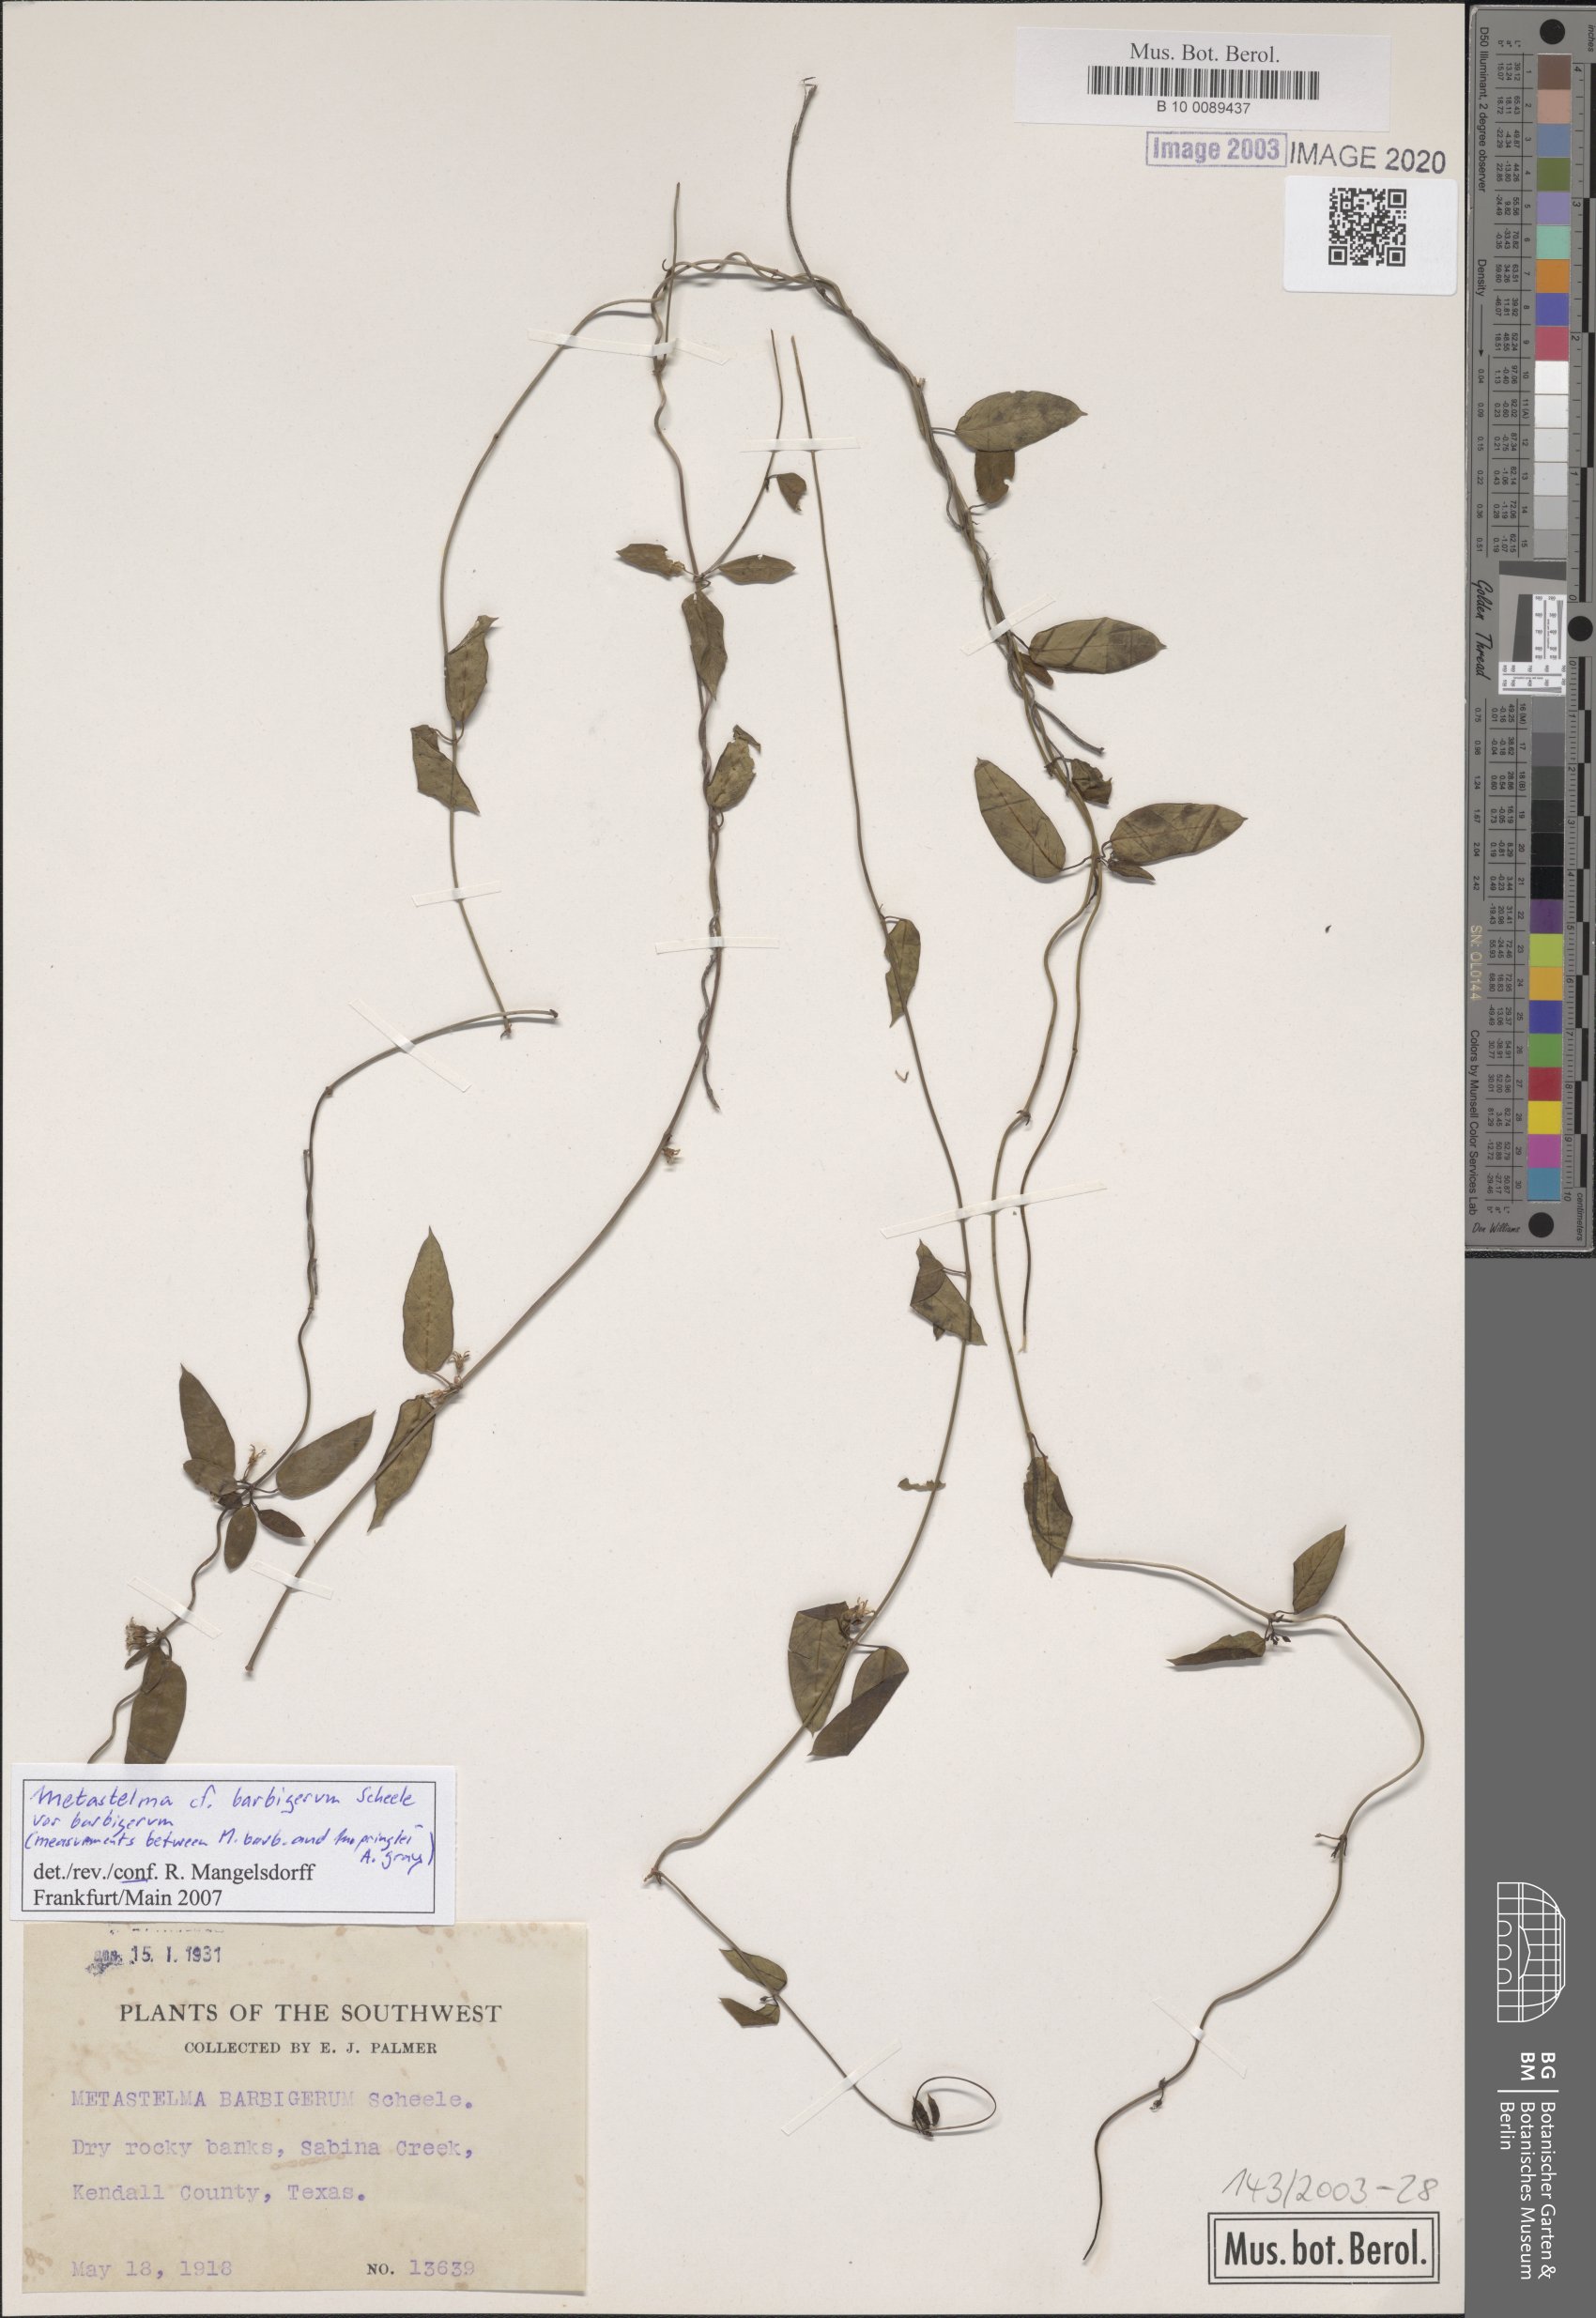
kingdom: Plantae
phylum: Tracheophyta
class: Magnoliopsida
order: Gentianales
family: Apocynaceae
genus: Metastelma
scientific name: Metastelma barbigerum
